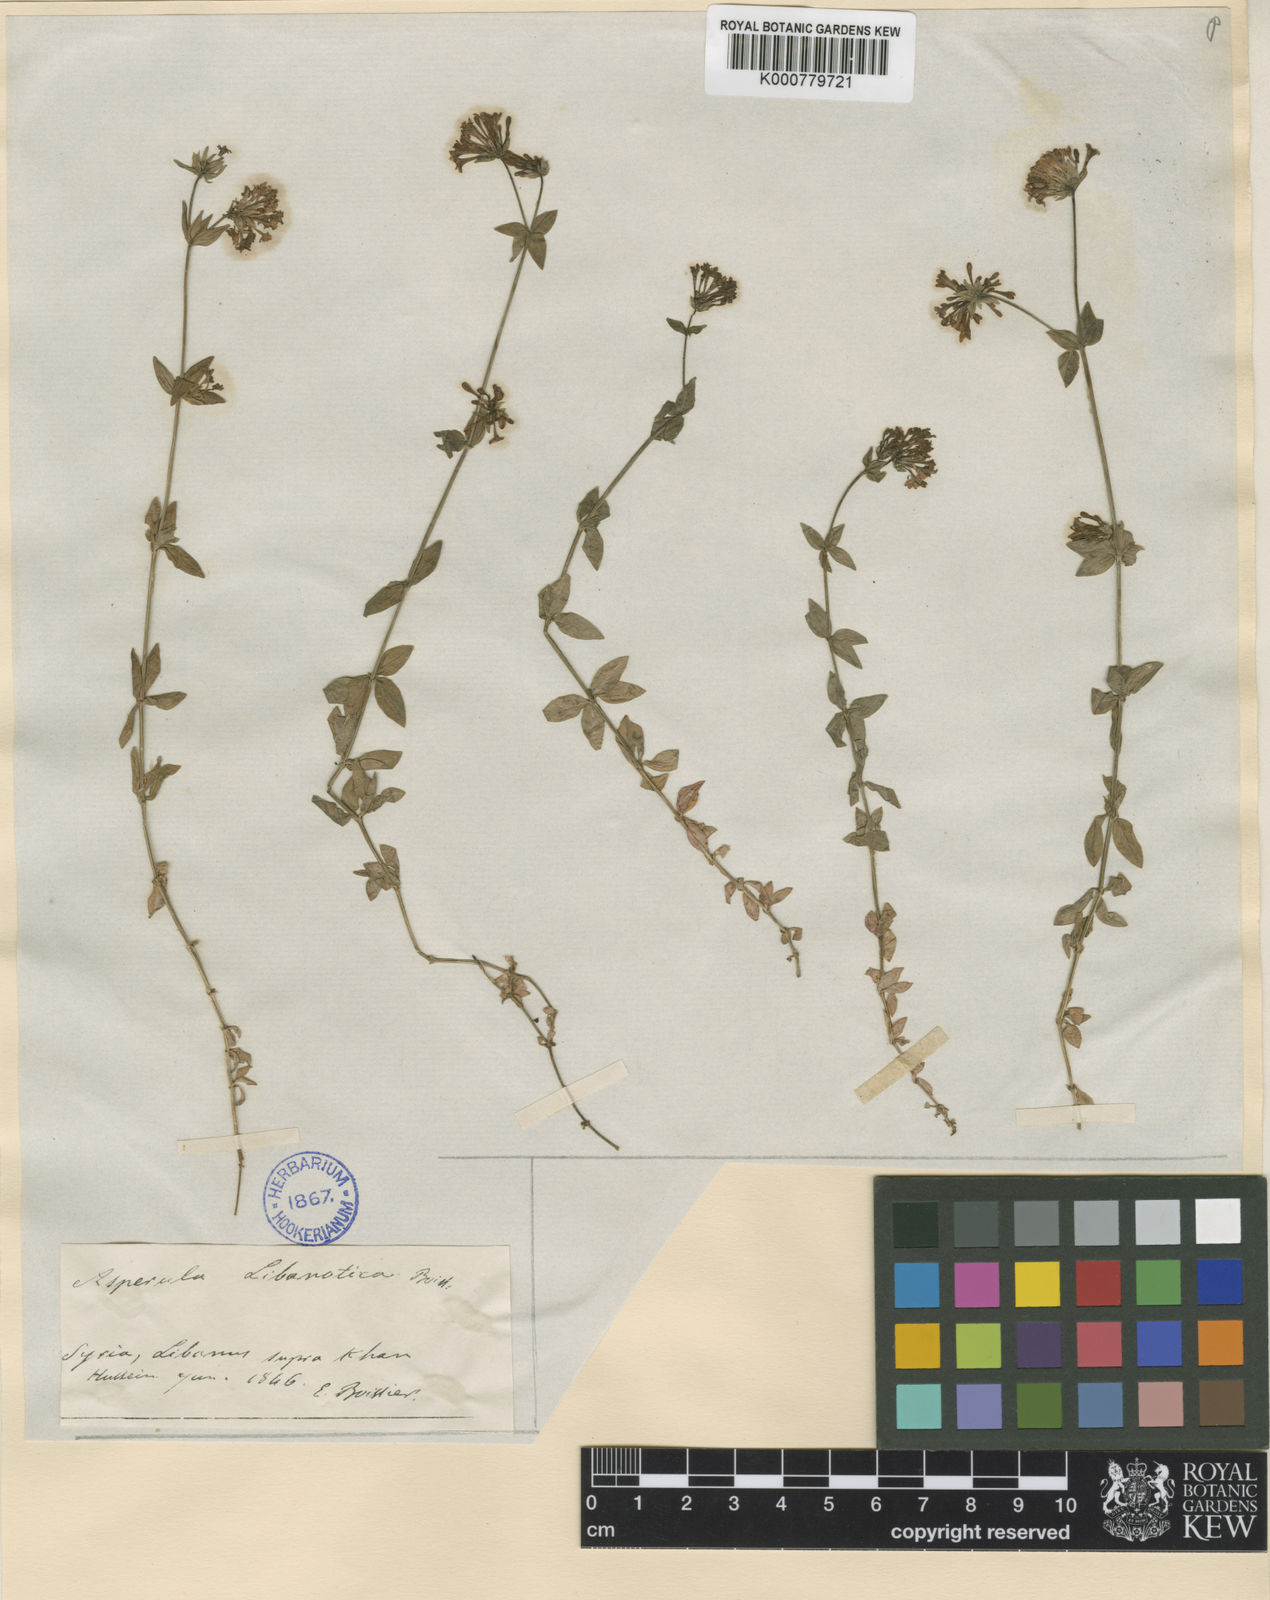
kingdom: Plantae
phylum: Tracheophyta
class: Magnoliopsida
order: Gentianales
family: Rubiaceae
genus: Asperula
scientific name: Asperula libanotica
